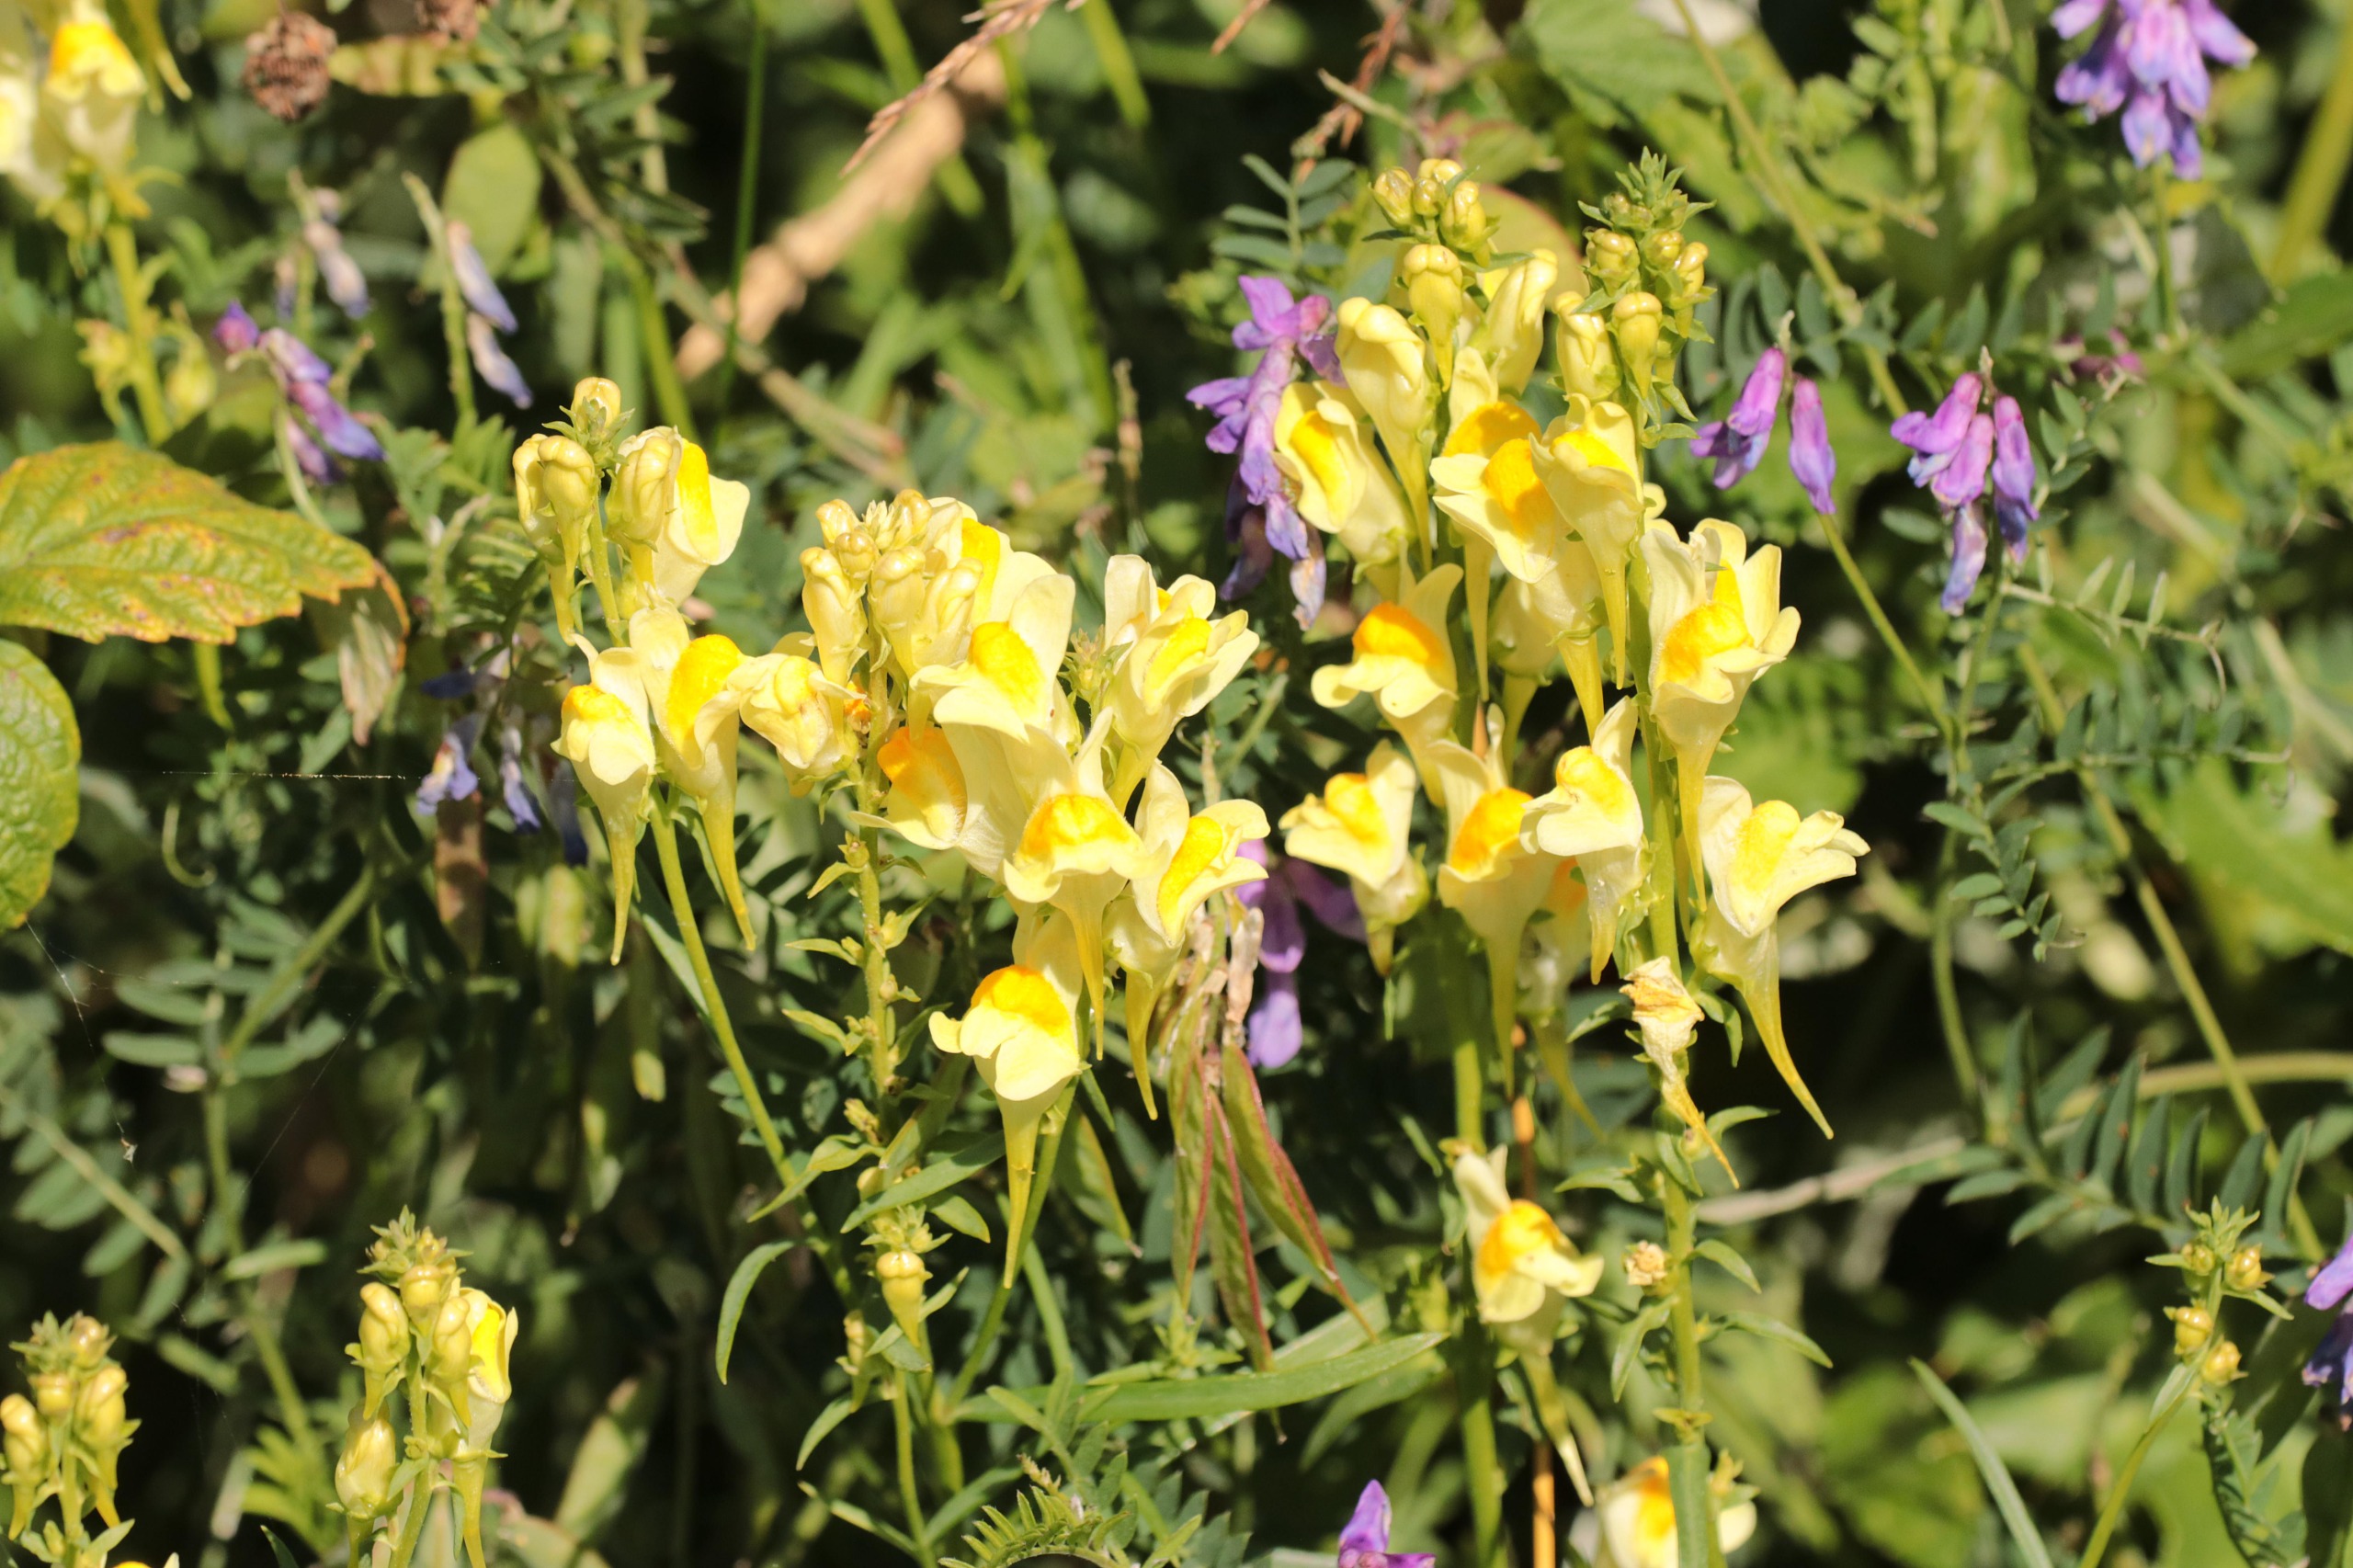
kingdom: Plantae
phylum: Tracheophyta
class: Magnoliopsida
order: Lamiales
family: Plantaginaceae
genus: Linaria
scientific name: Linaria vulgaris
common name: Almindelig torskemund
